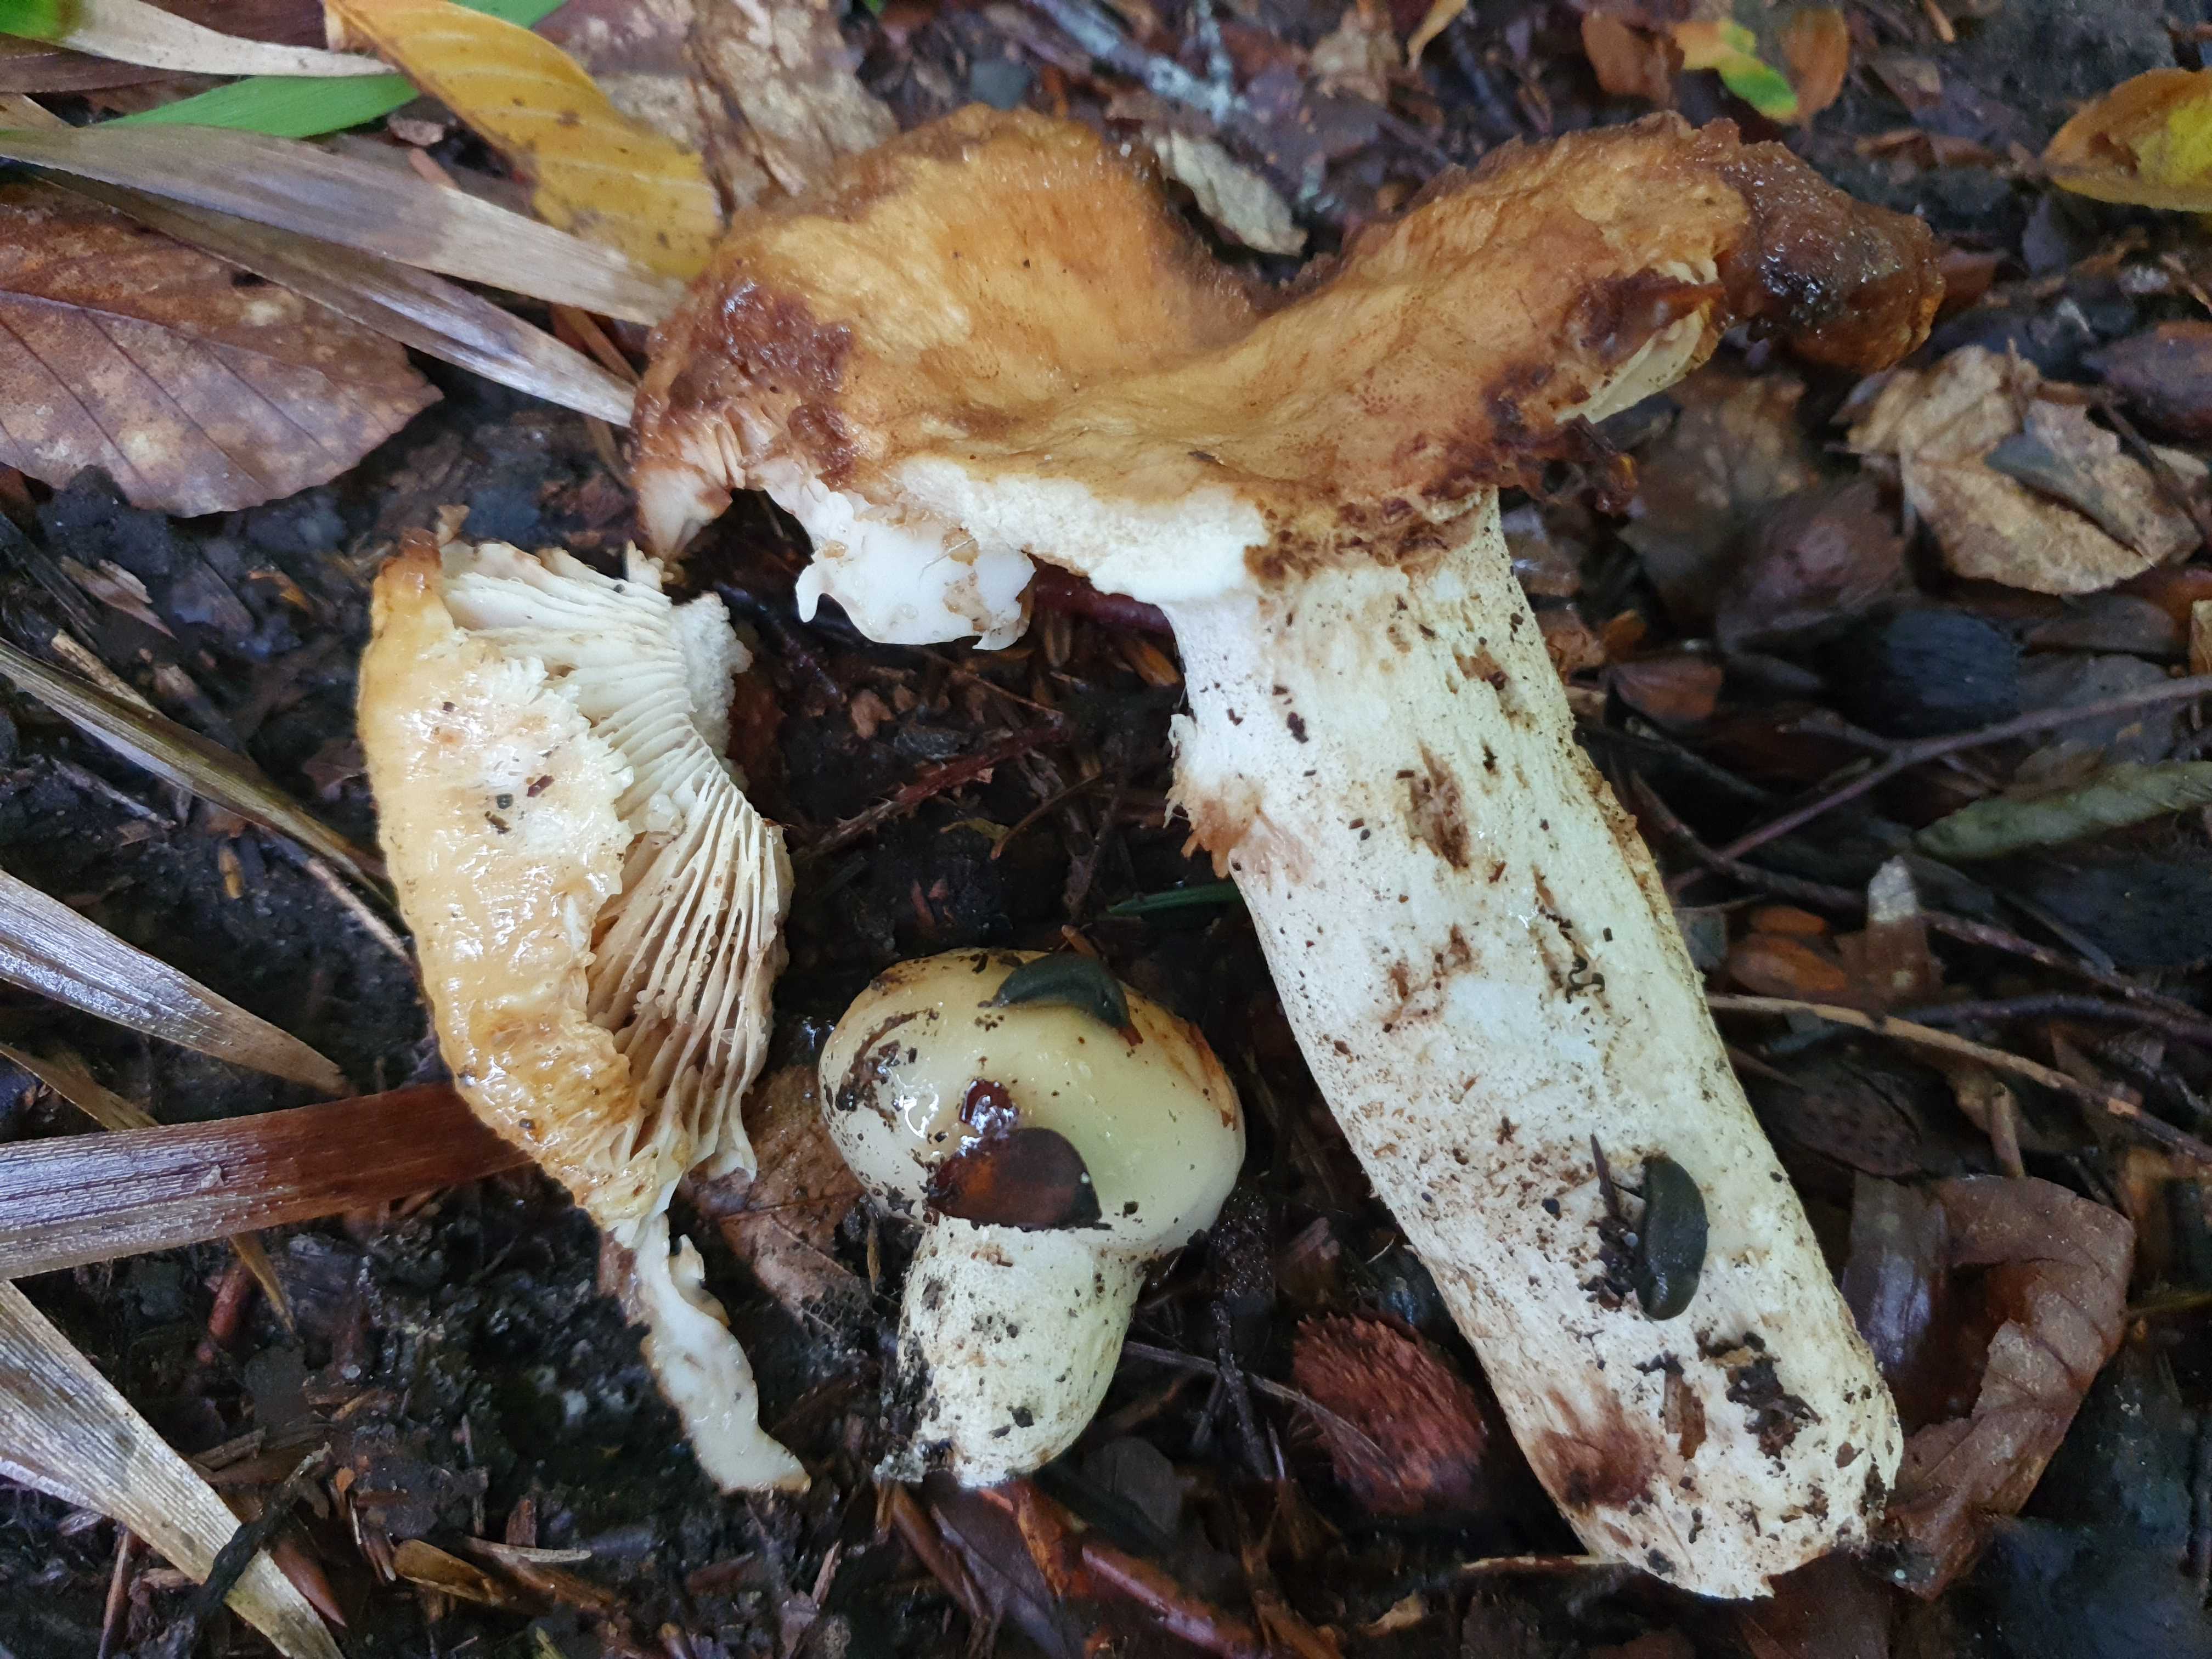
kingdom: Fungi
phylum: Basidiomycota
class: Agaricomycetes
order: Russulales
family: Russulaceae
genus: Russula
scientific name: Russula foetens
